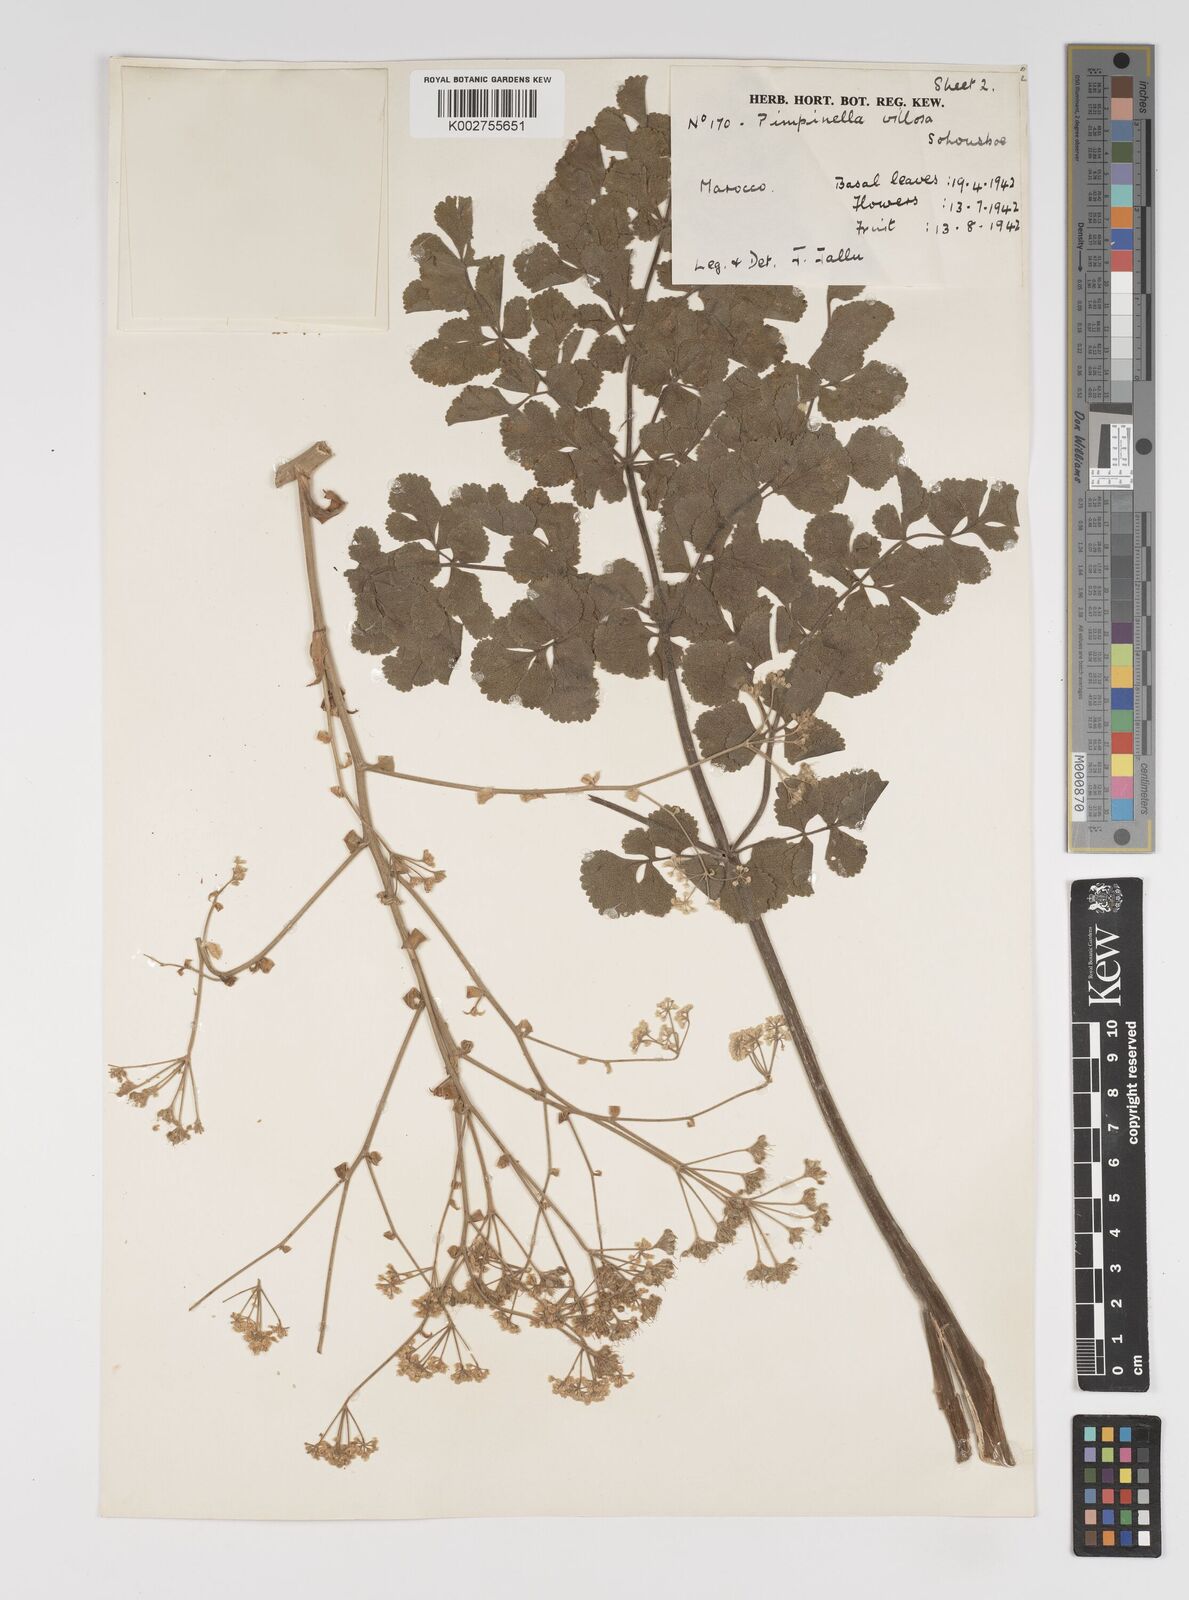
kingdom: Plantae
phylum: Tracheophyta
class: Magnoliopsida
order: Apiales
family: Apiaceae
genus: Pimpinella
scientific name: Pimpinella villosa
